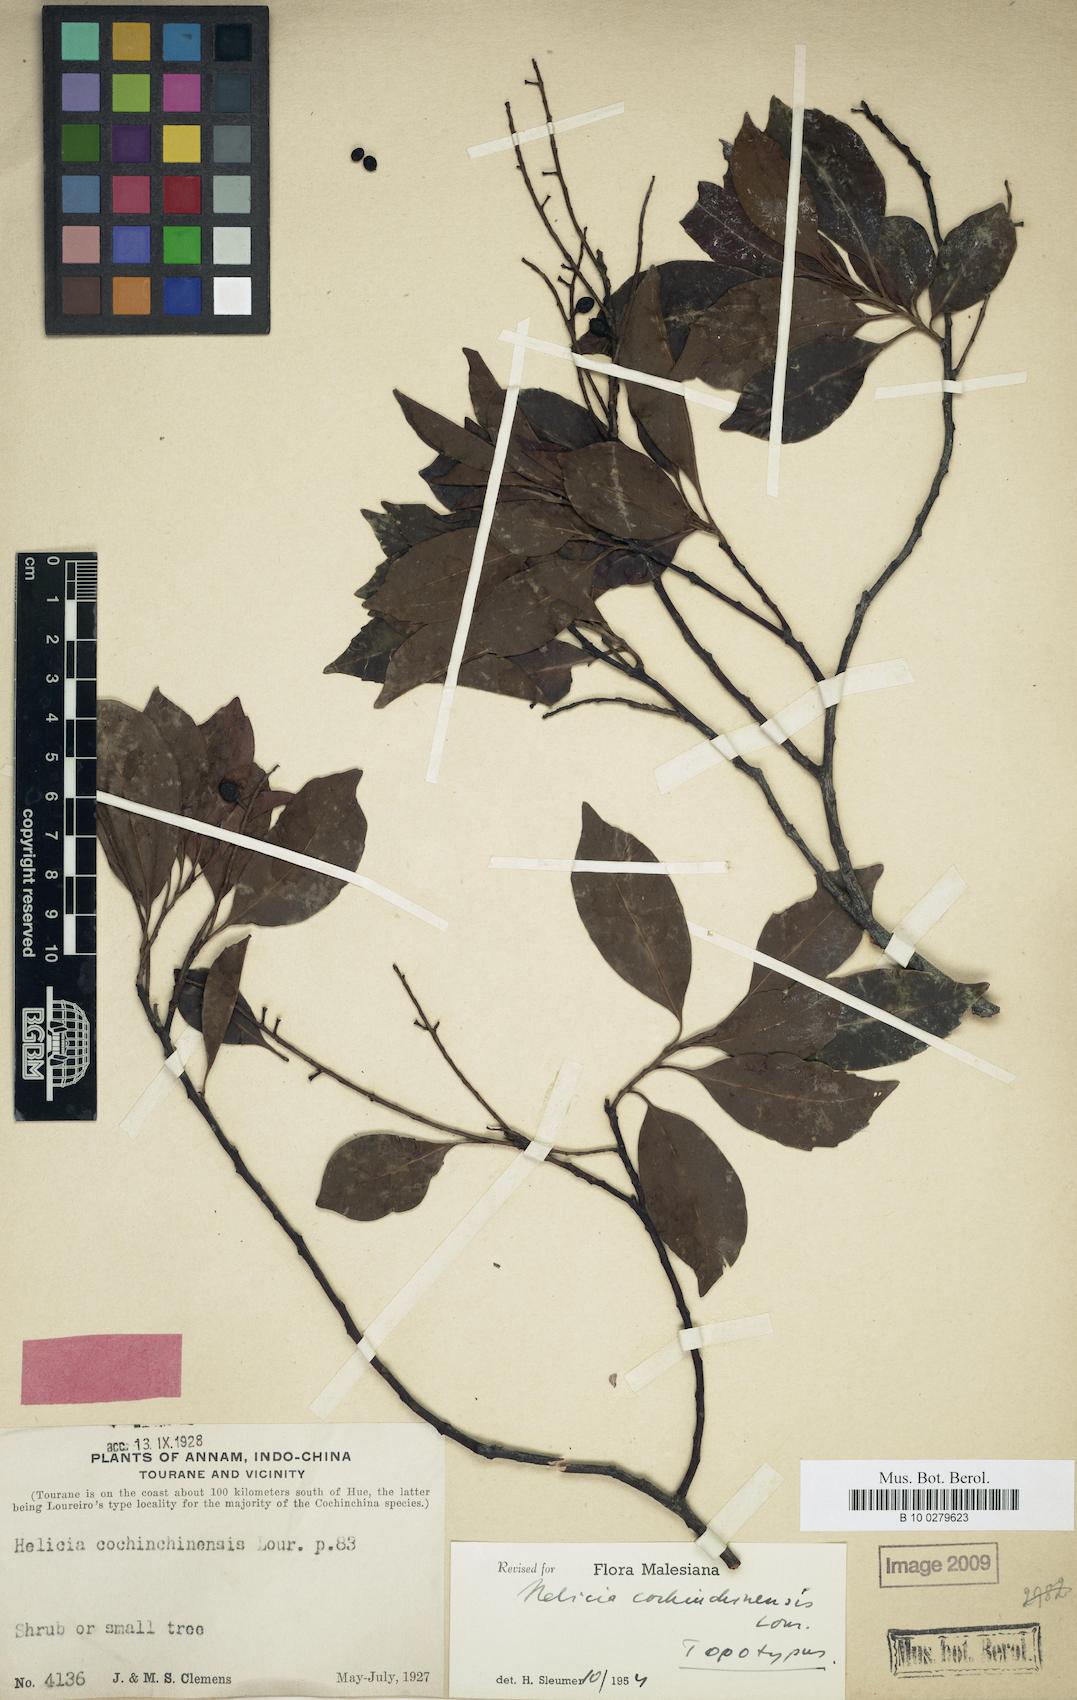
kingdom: Plantae
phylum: Tracheophyta
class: Magnoliopsida
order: Proteales
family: Proteaceae
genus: Helicia
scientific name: Helicia cochinchinensis
